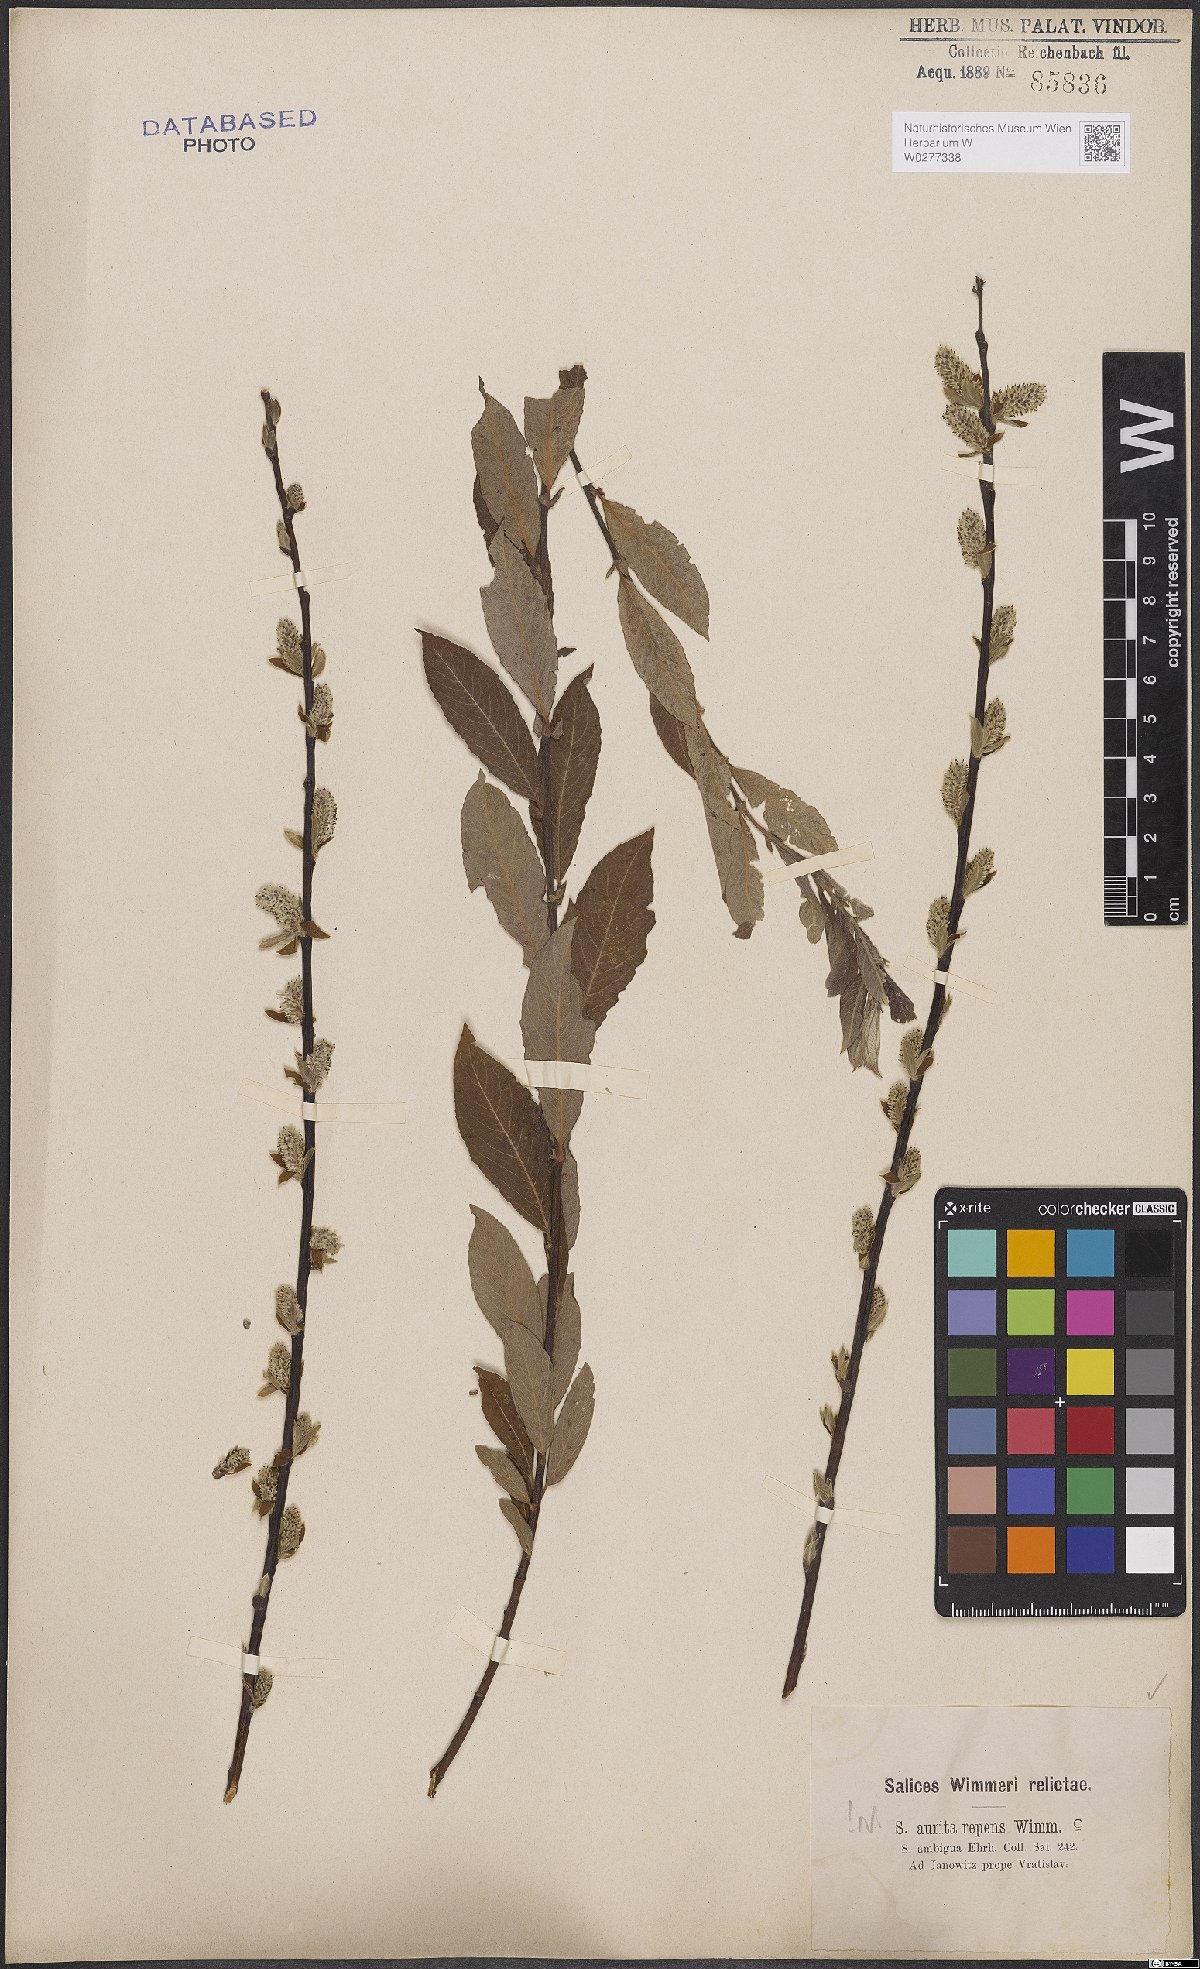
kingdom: Plantae
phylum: Tracheophyta
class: Magnoliopsida
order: Malpighiales
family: Salicaceae
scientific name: Salicaceae
